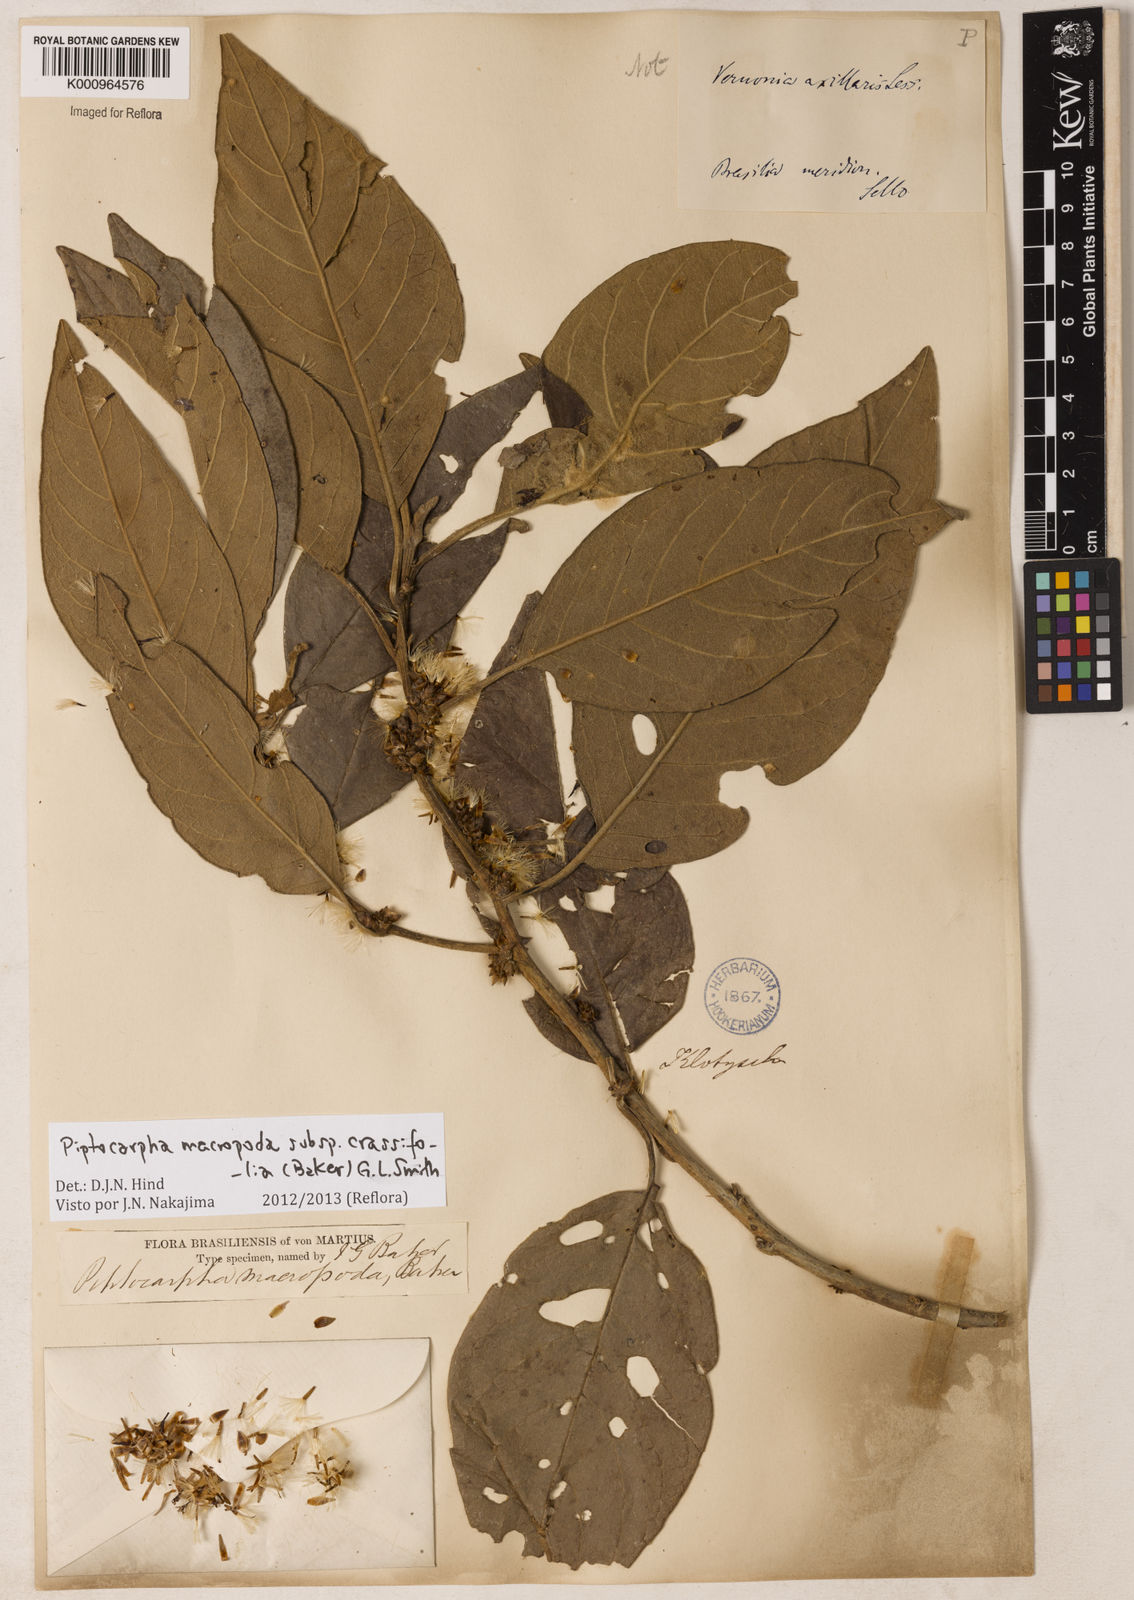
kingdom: Plantae
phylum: Tracheophyta
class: Magnoliopsida
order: Asterales
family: Asteraceae
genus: Piptocarpha
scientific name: Piptocarpha macropoda
